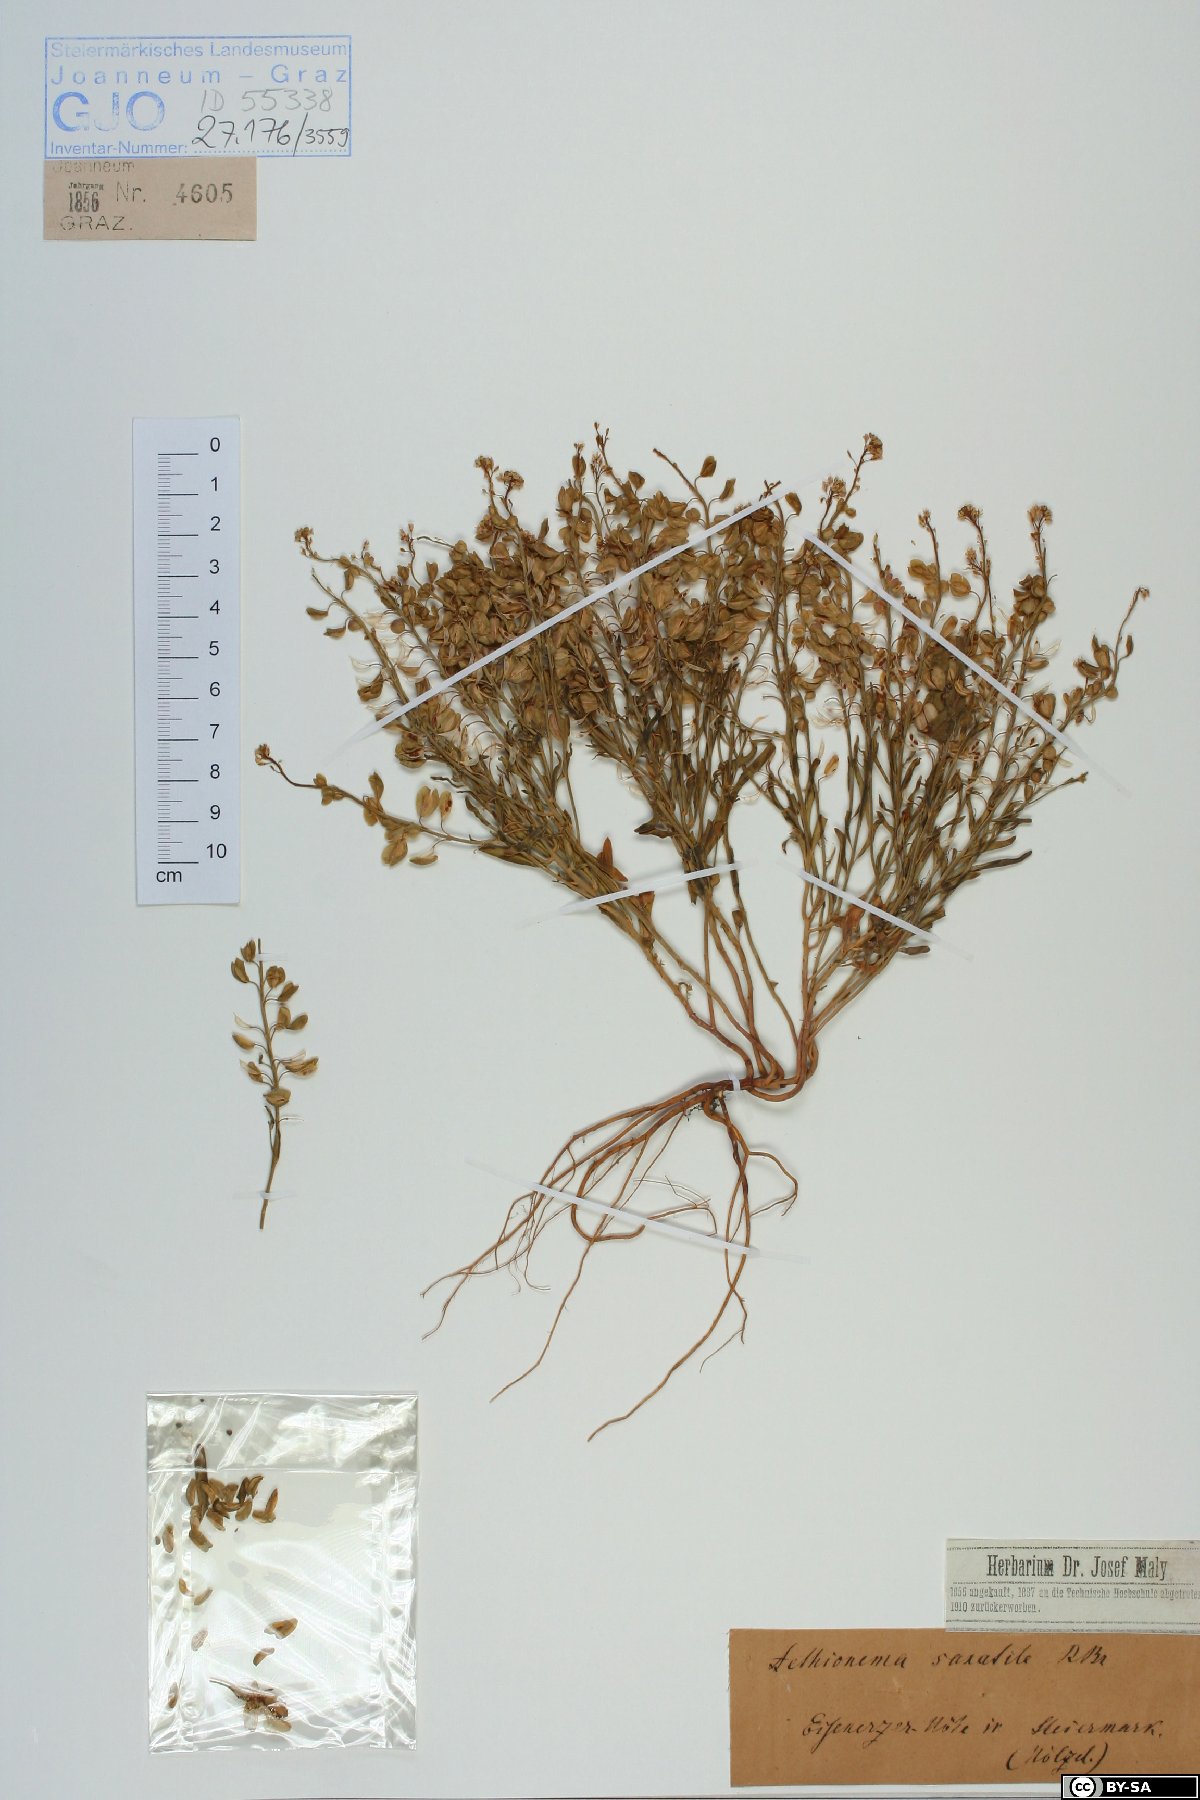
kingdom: Plantae
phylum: Tracheophyta
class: Magnoliopsida
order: Brassicales
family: Brassicaceae
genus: Aethionema
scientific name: Aethionema saxatile
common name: Burnt candytuft
